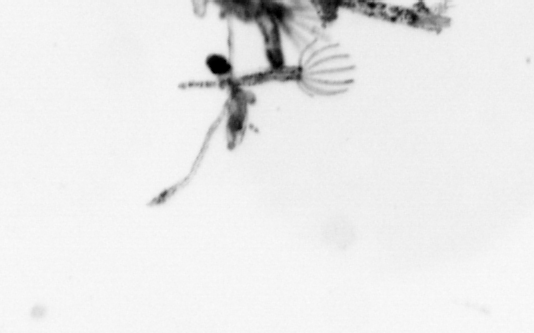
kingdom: Animalia
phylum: Cnidaria
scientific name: Cnidaria
